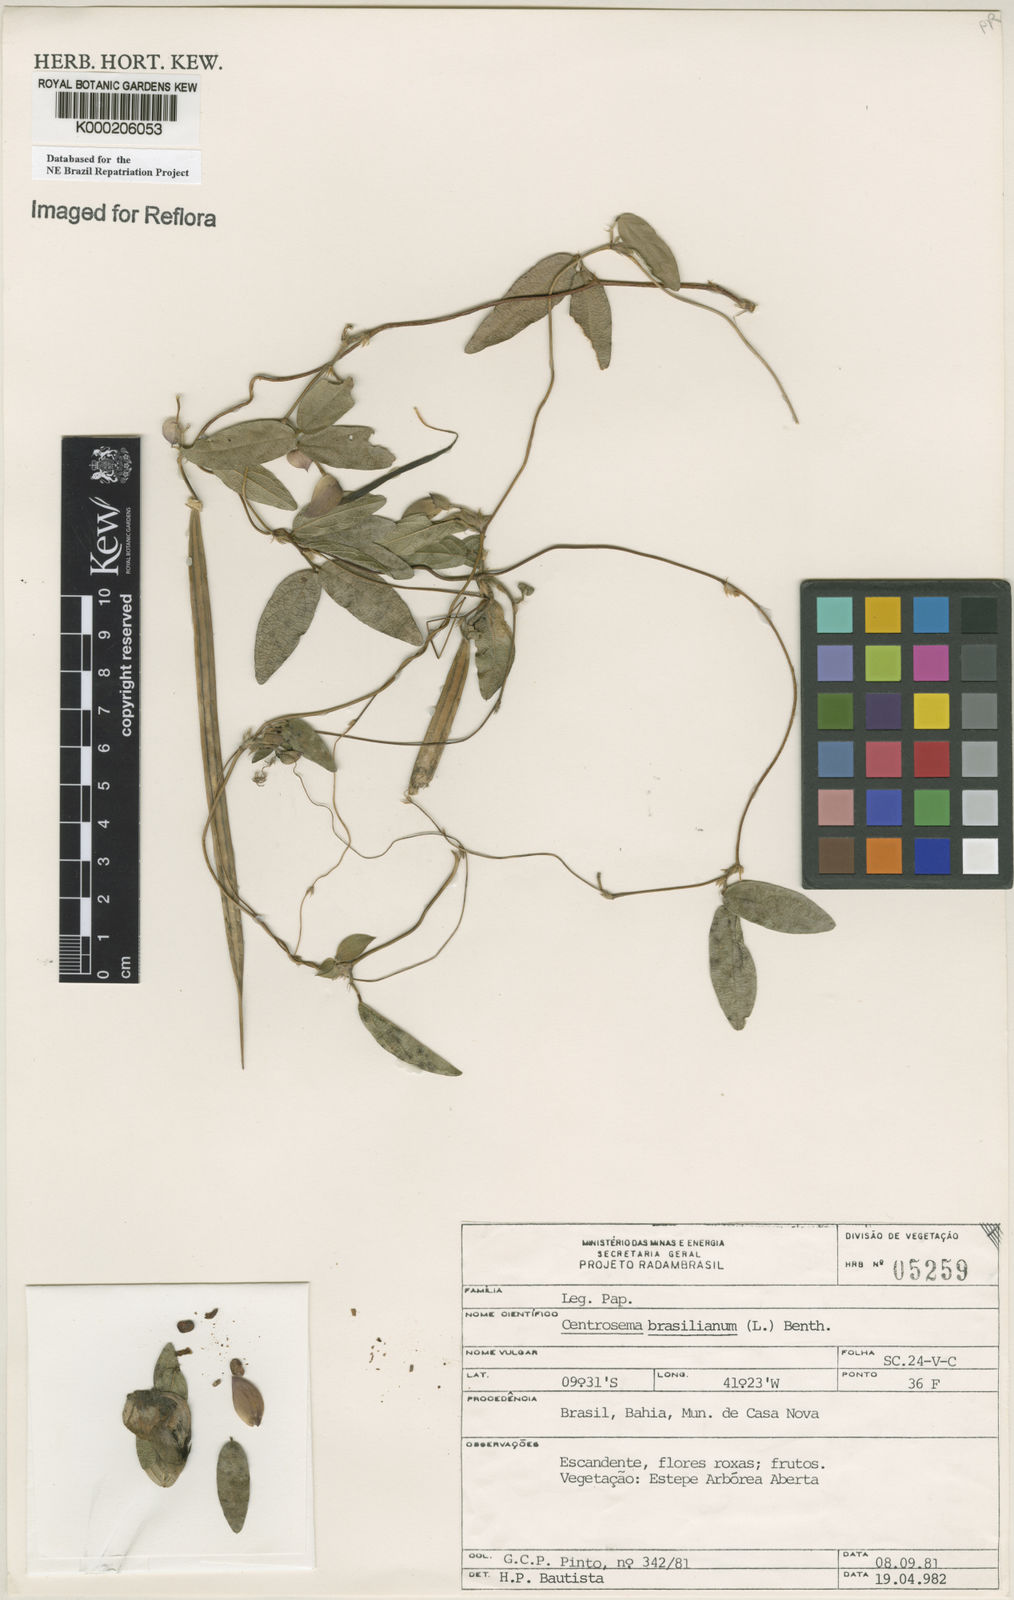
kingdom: Plantae
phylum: Tracheophyta
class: Magnoliopsida
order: Fabales
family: Fabaceae
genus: Centrosema
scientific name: Centrosema brasilianum
